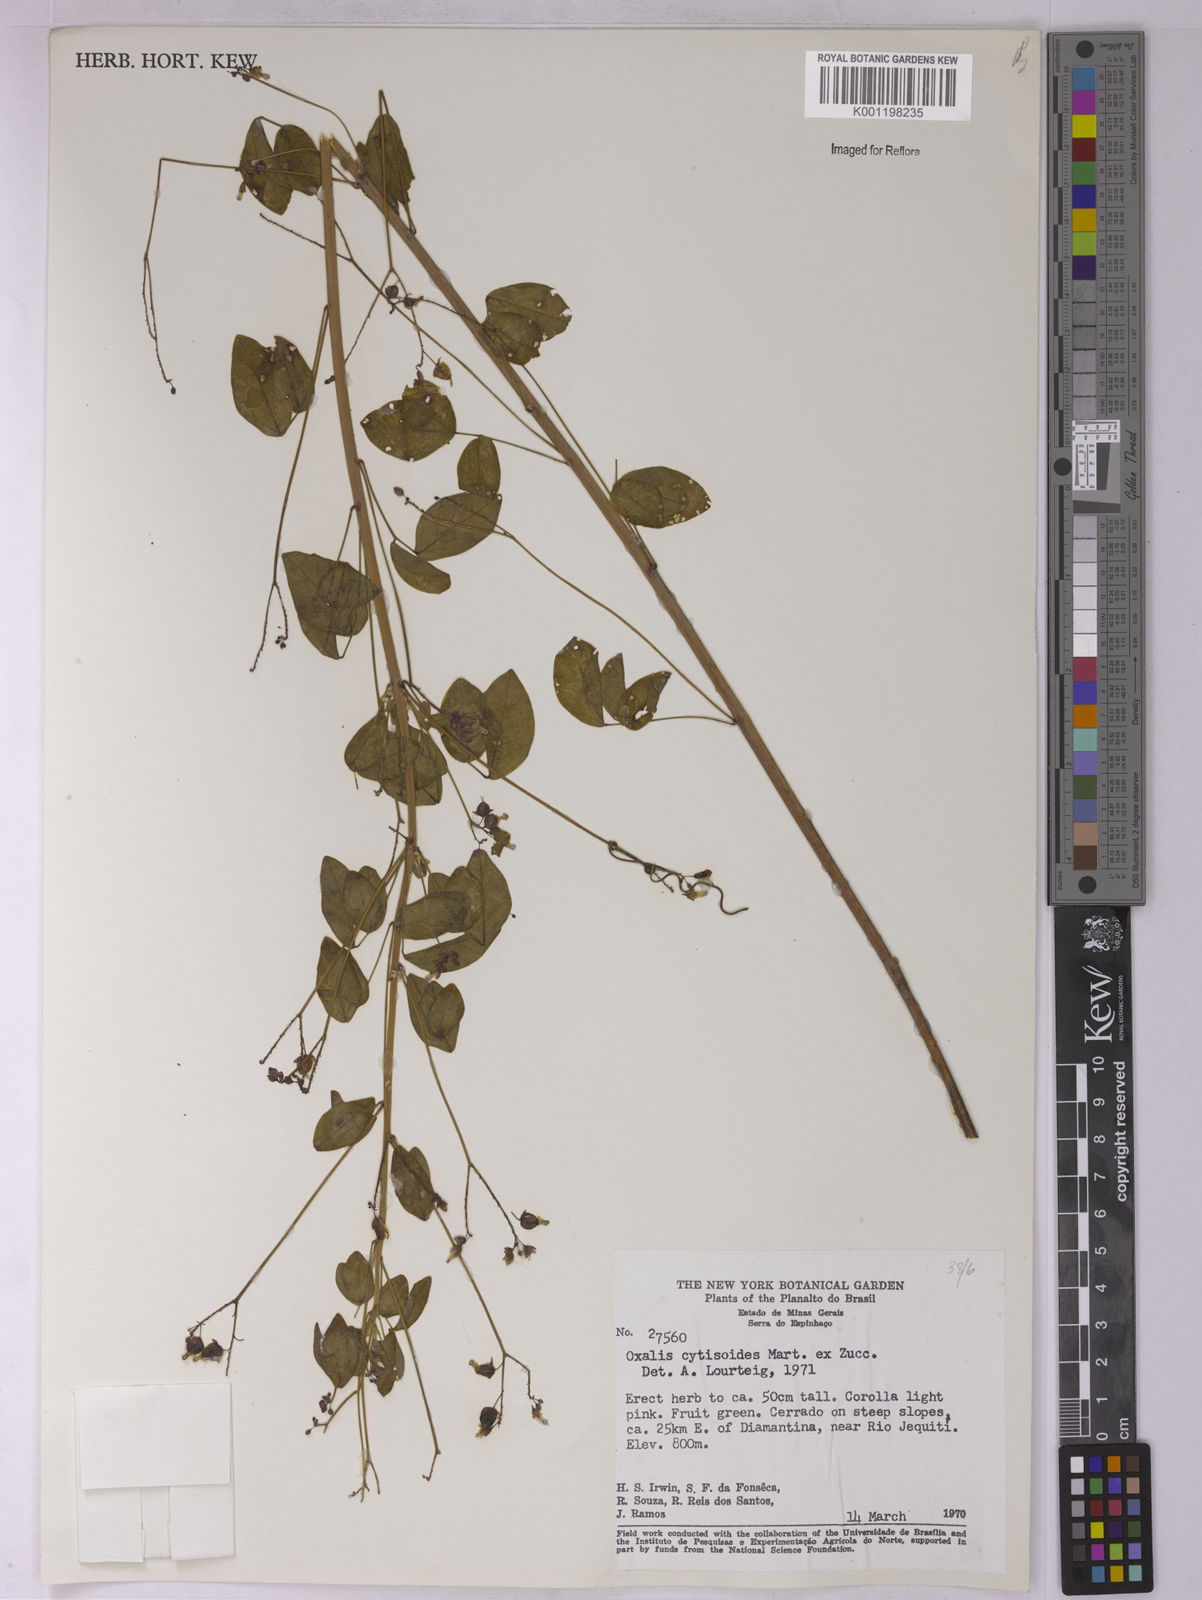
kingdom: Plantae
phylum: Tracheophyta
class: Magnoliopsida
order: Oxalidales
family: Oxalidaceae
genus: Oxalis
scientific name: Oxalis cytisoides
